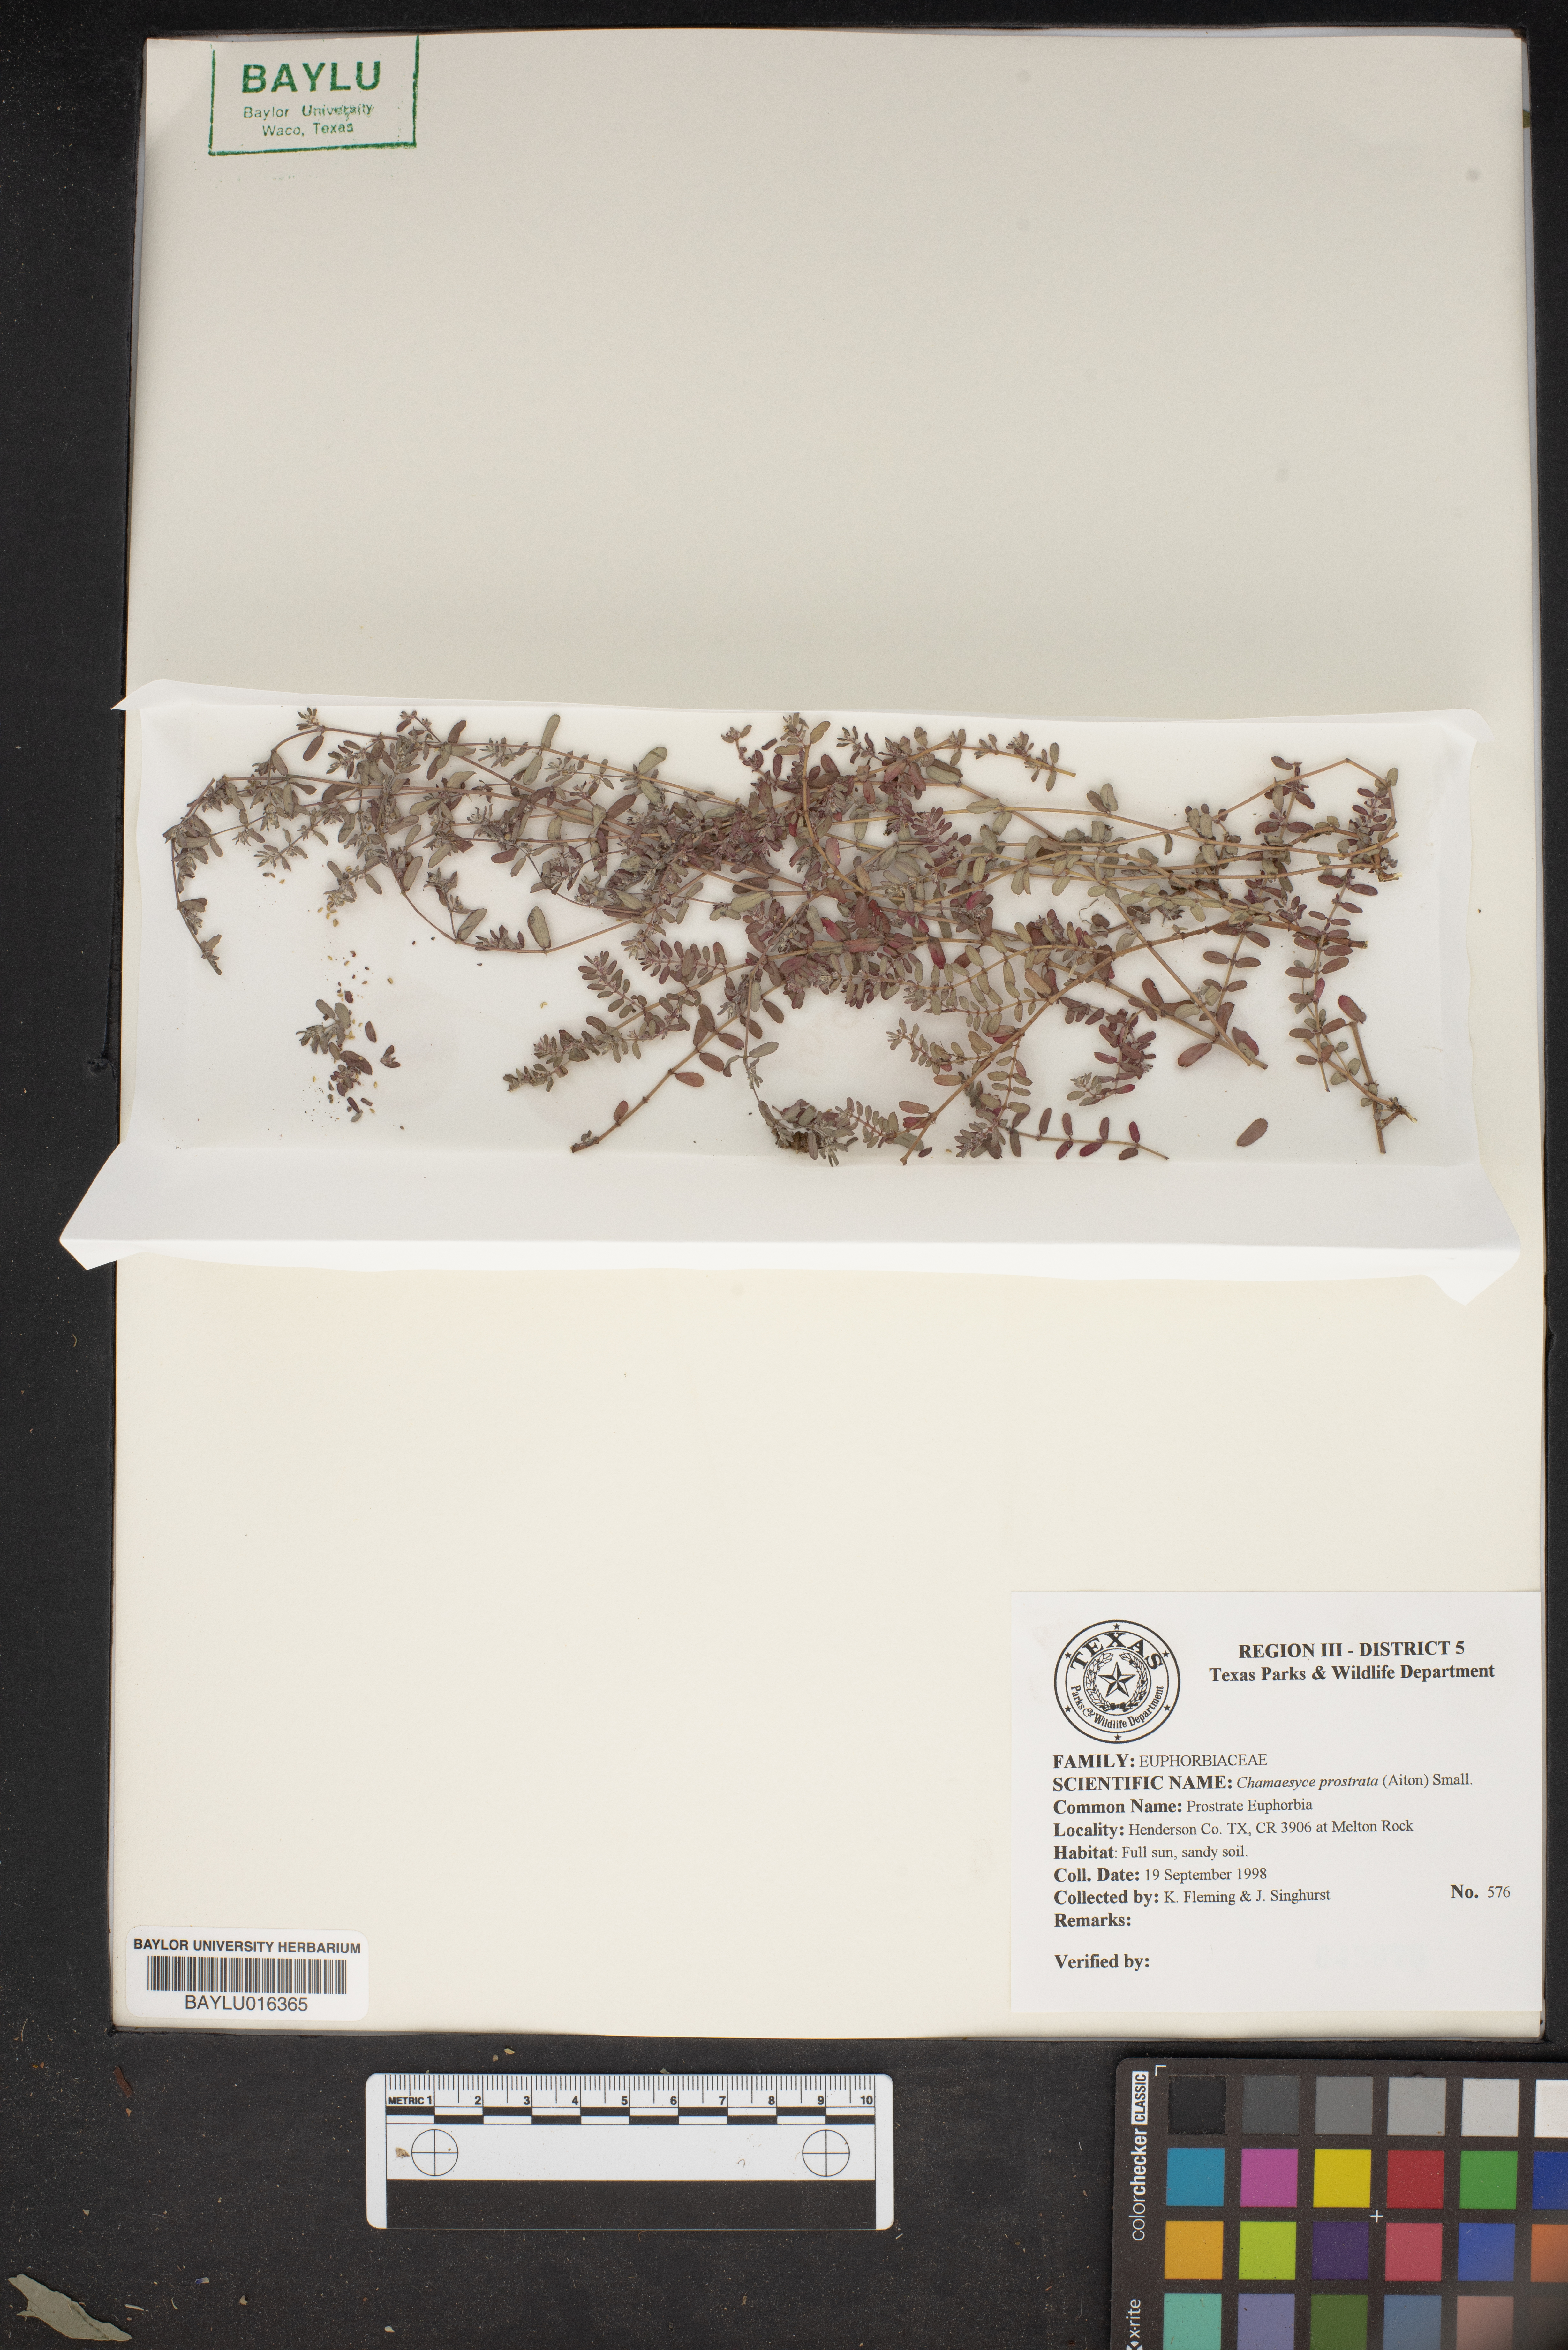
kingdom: Plantae
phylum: Tracheophyta
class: Magnoliopsida
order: Malpighiales
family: Euphorbiaceae
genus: Euphorbia
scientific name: Euphorbia prostrata
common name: Prostrate sandmat
